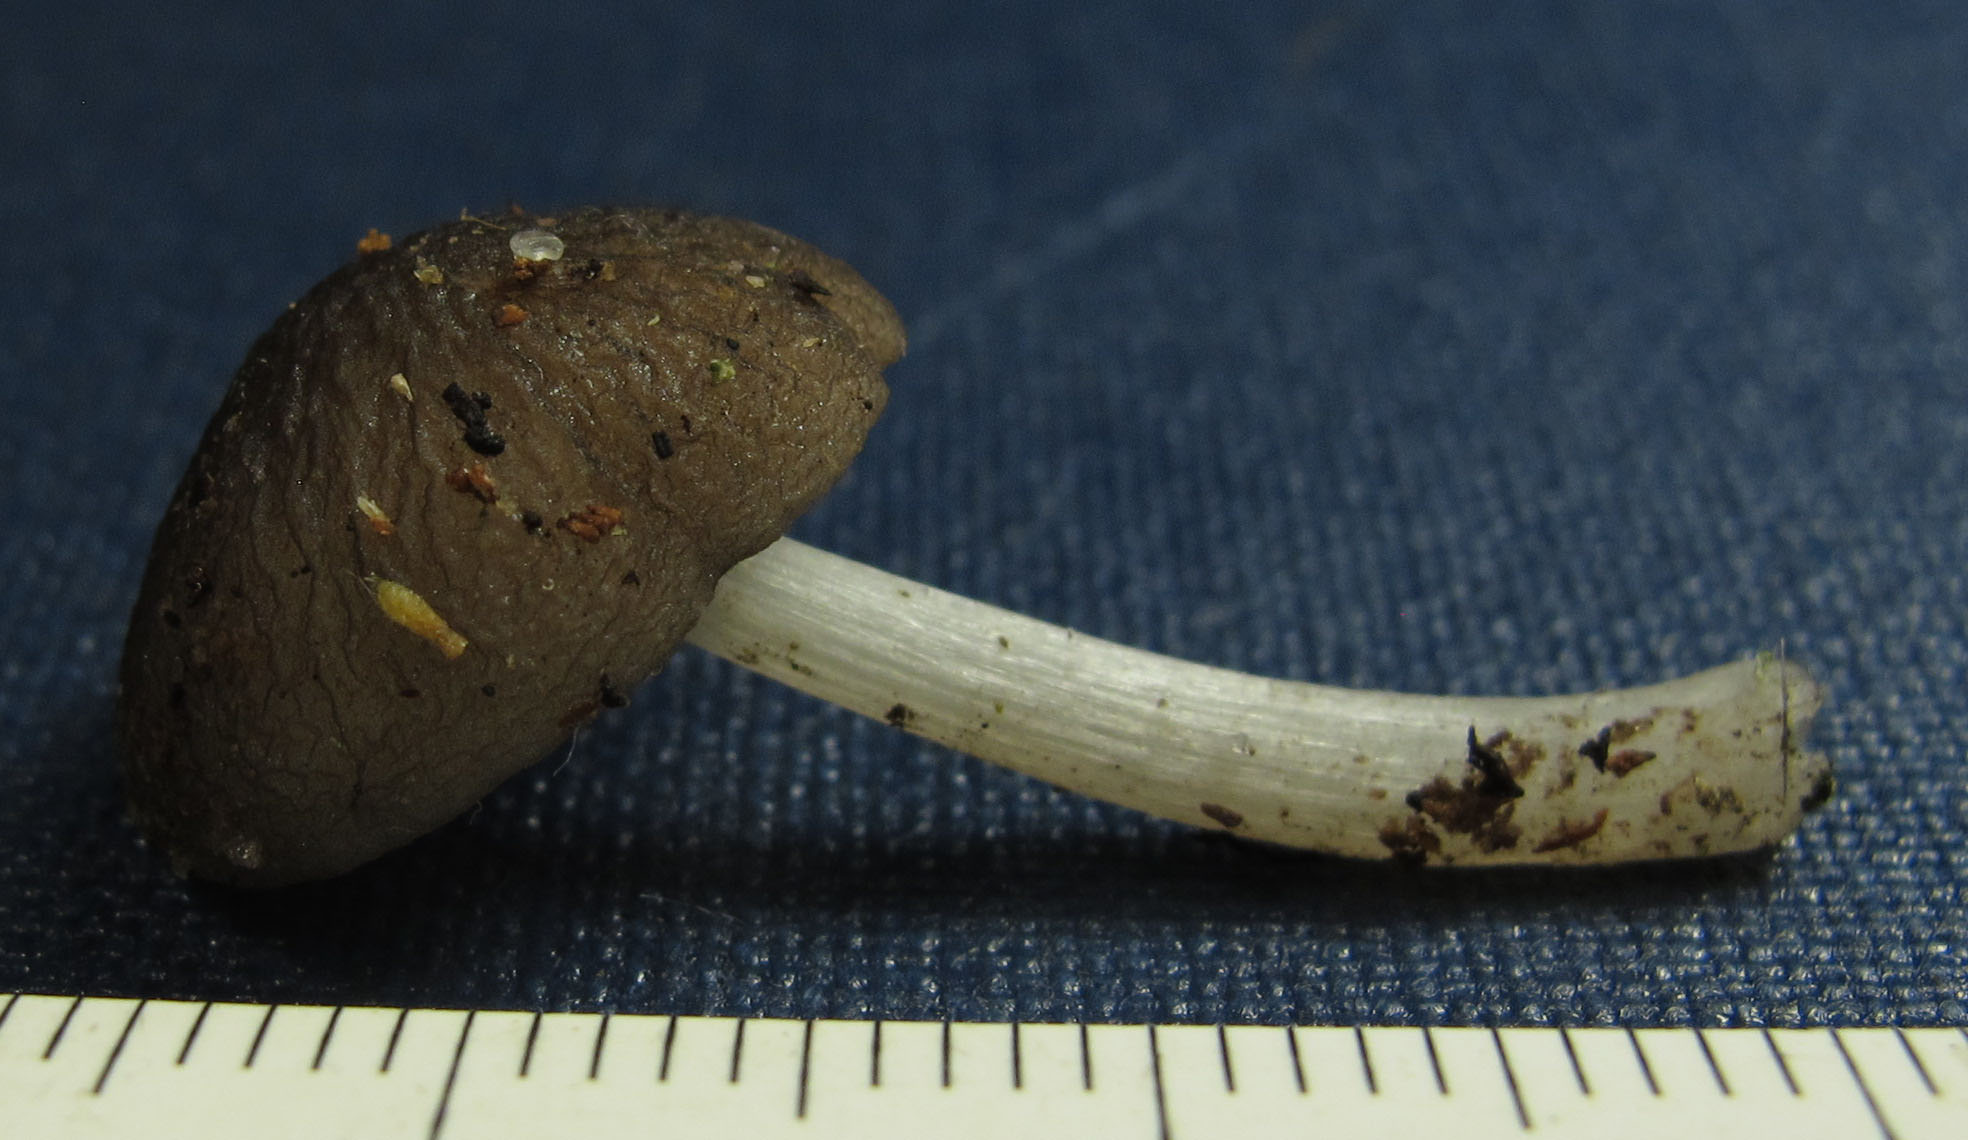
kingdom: Fungi
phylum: Basidiomycota
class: Agaricomycetes
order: Agaricales
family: Pluteaceae
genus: Pluteus
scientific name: Pluteus
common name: pudret skærmhat
